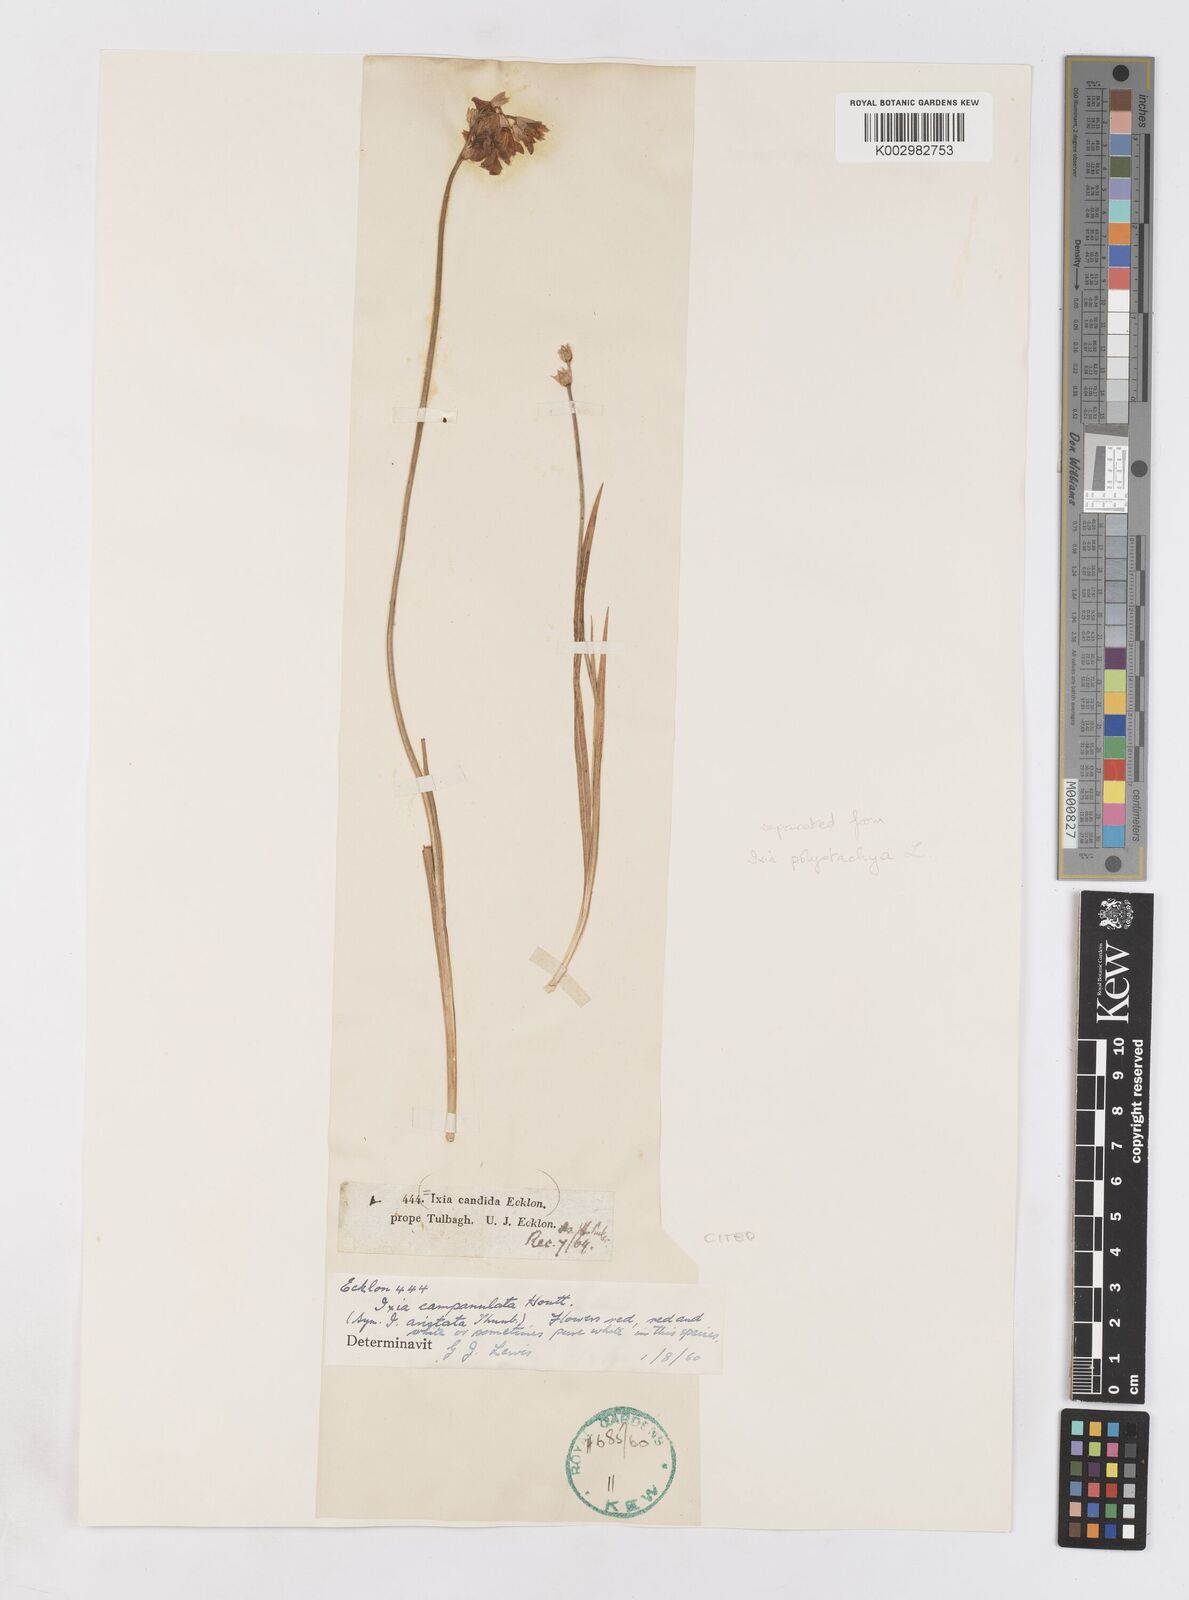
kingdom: Plantae
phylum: Tracheophyta
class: Liliopsida
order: Asparagales
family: Iridaceae
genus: Ixia
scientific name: Ixia campanulata
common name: Red corn-lily
